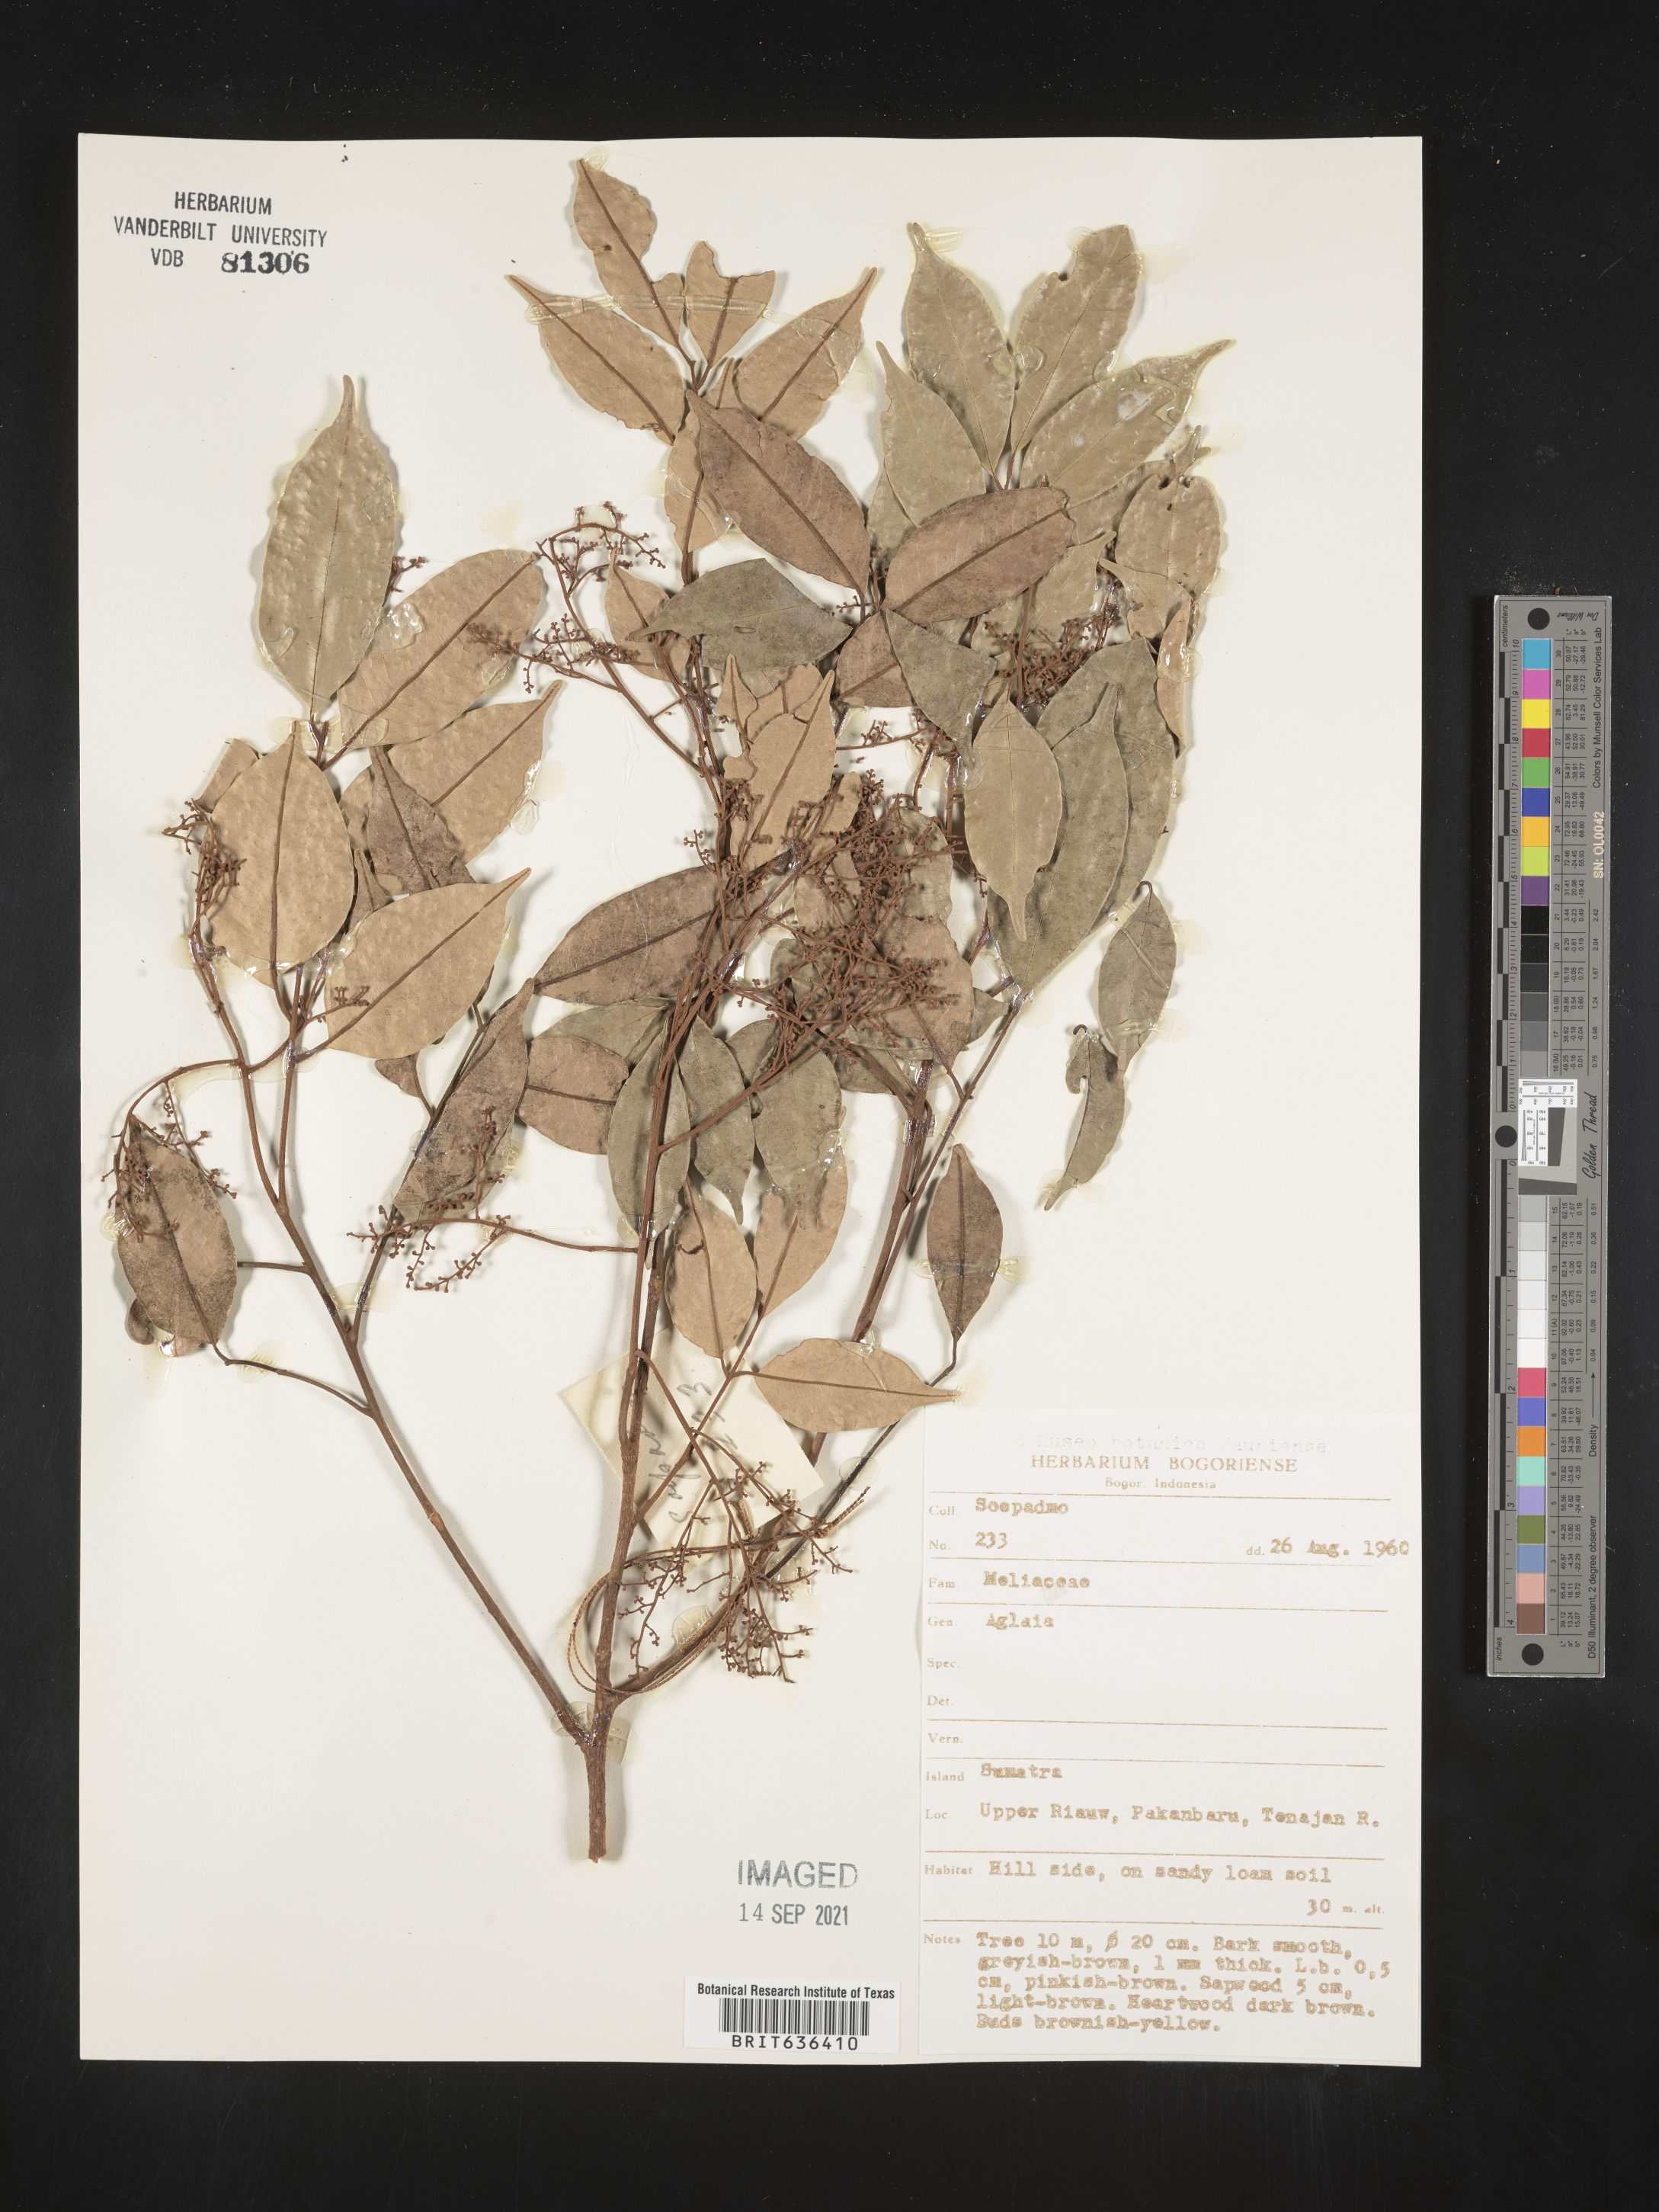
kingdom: Plantae
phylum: Tracheophyta
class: Magnoliopsida
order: Sapindales
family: Meliaceae
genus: Aglaia
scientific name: Aglaia
